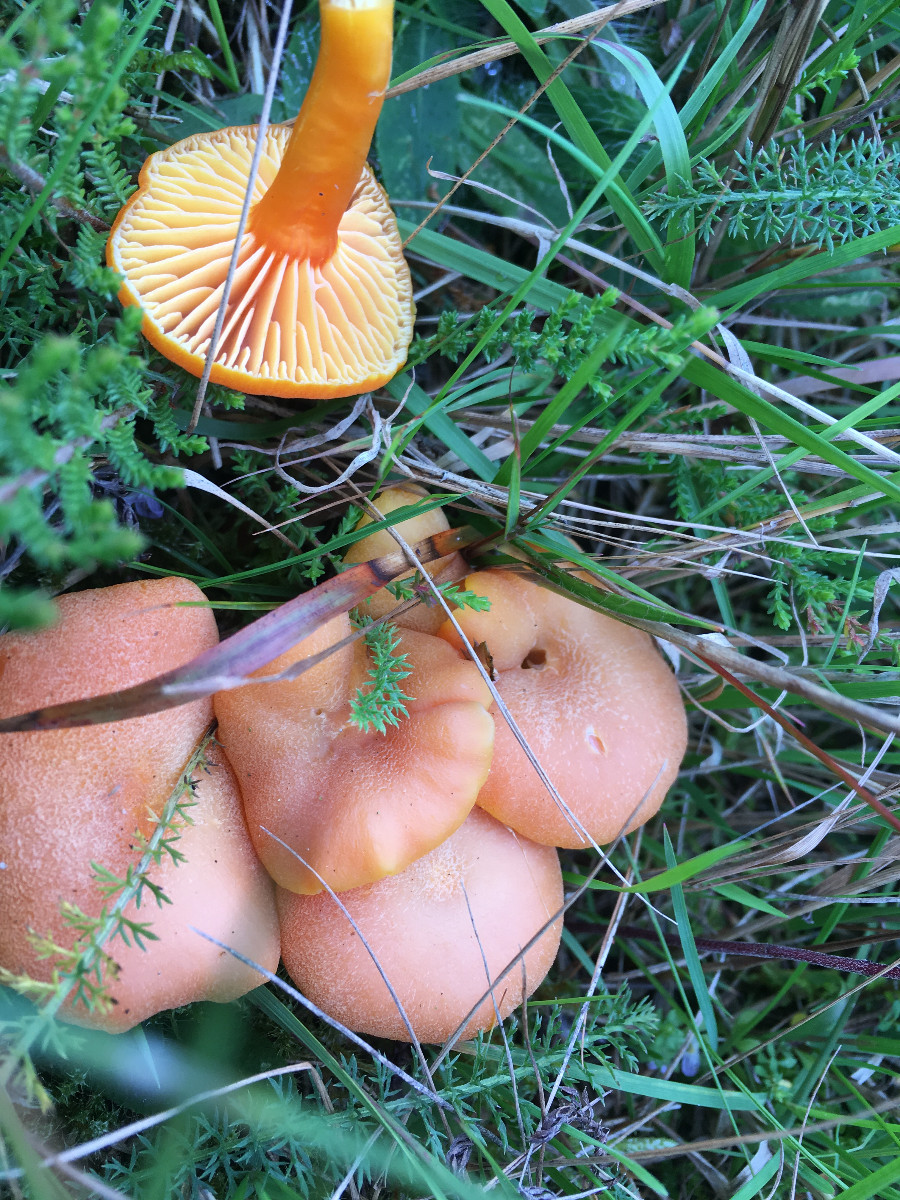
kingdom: Fungi
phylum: Basidiomycota
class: Agaricomycetes
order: Agaricales
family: Hygrophoraceae
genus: Hygrocybe
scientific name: Hygrocybe miniata
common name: mønje-vokshat
